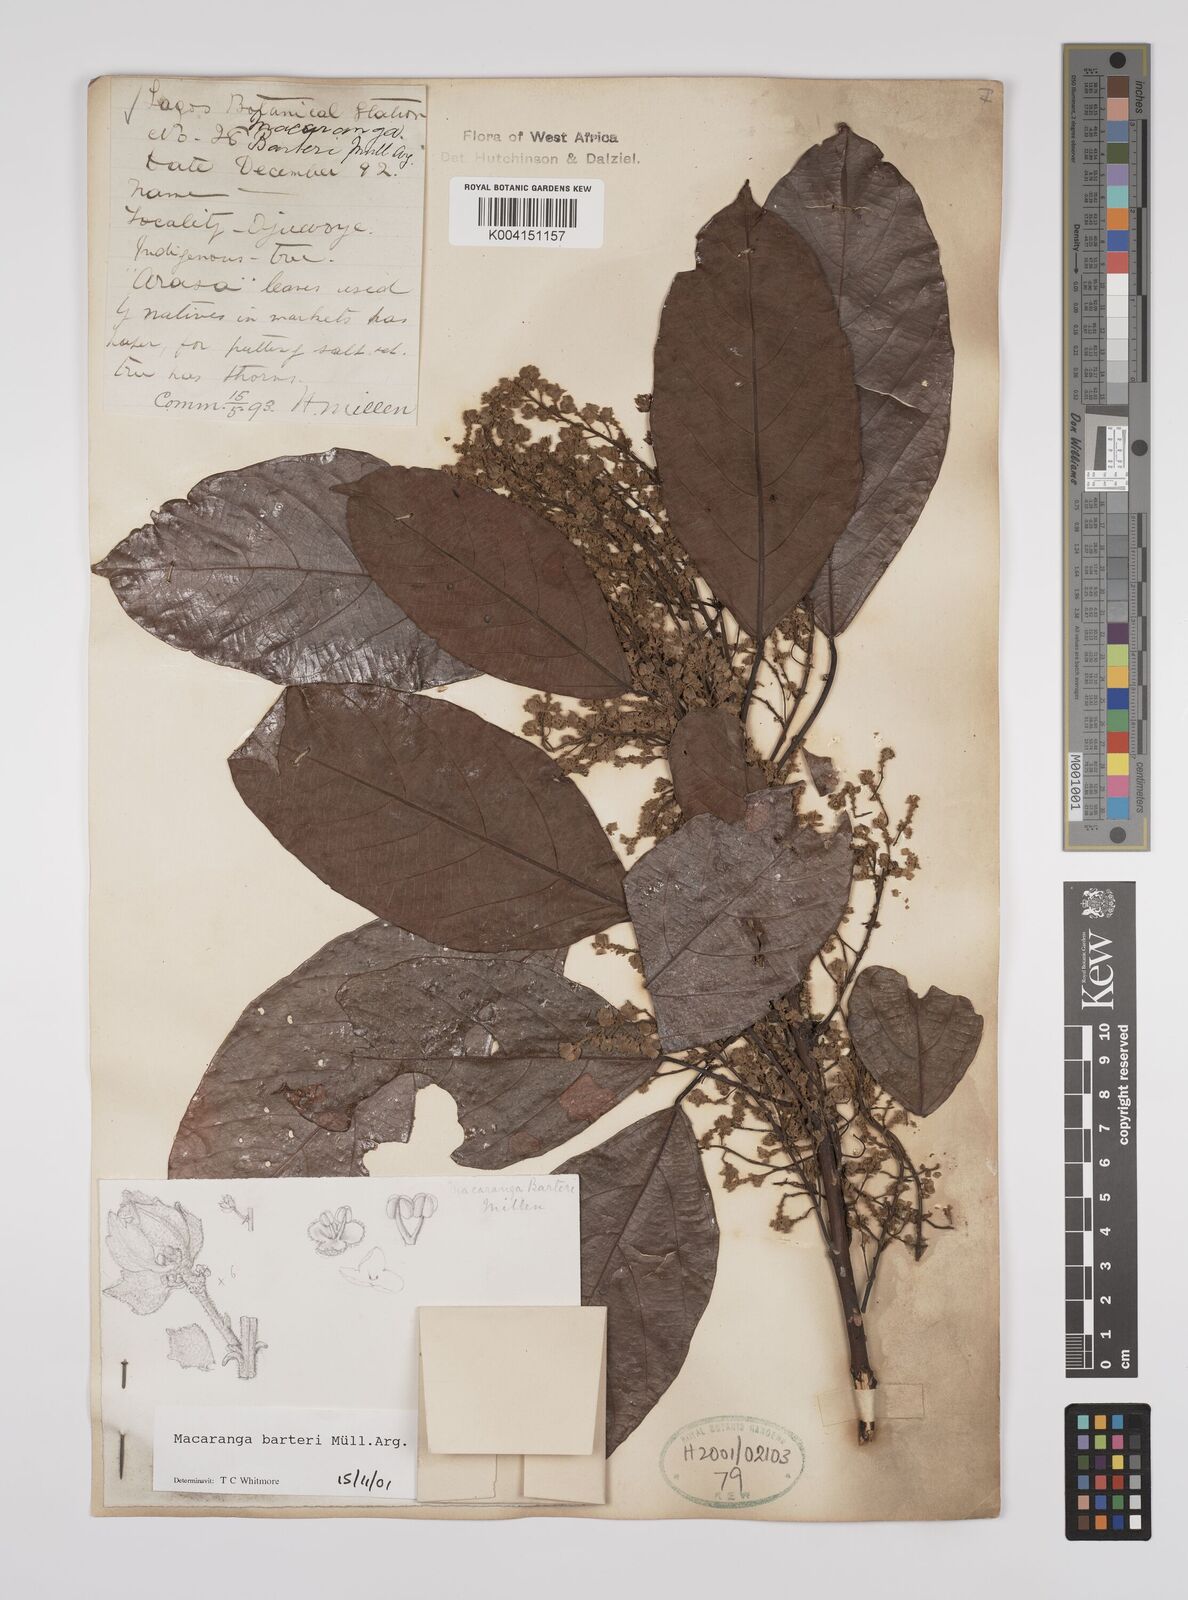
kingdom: Plantae
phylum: Tracheophyta
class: Magnoliopsida
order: Malpighiales
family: Euphorbiaceae
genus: Macaranga
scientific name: Macaranga barteri
